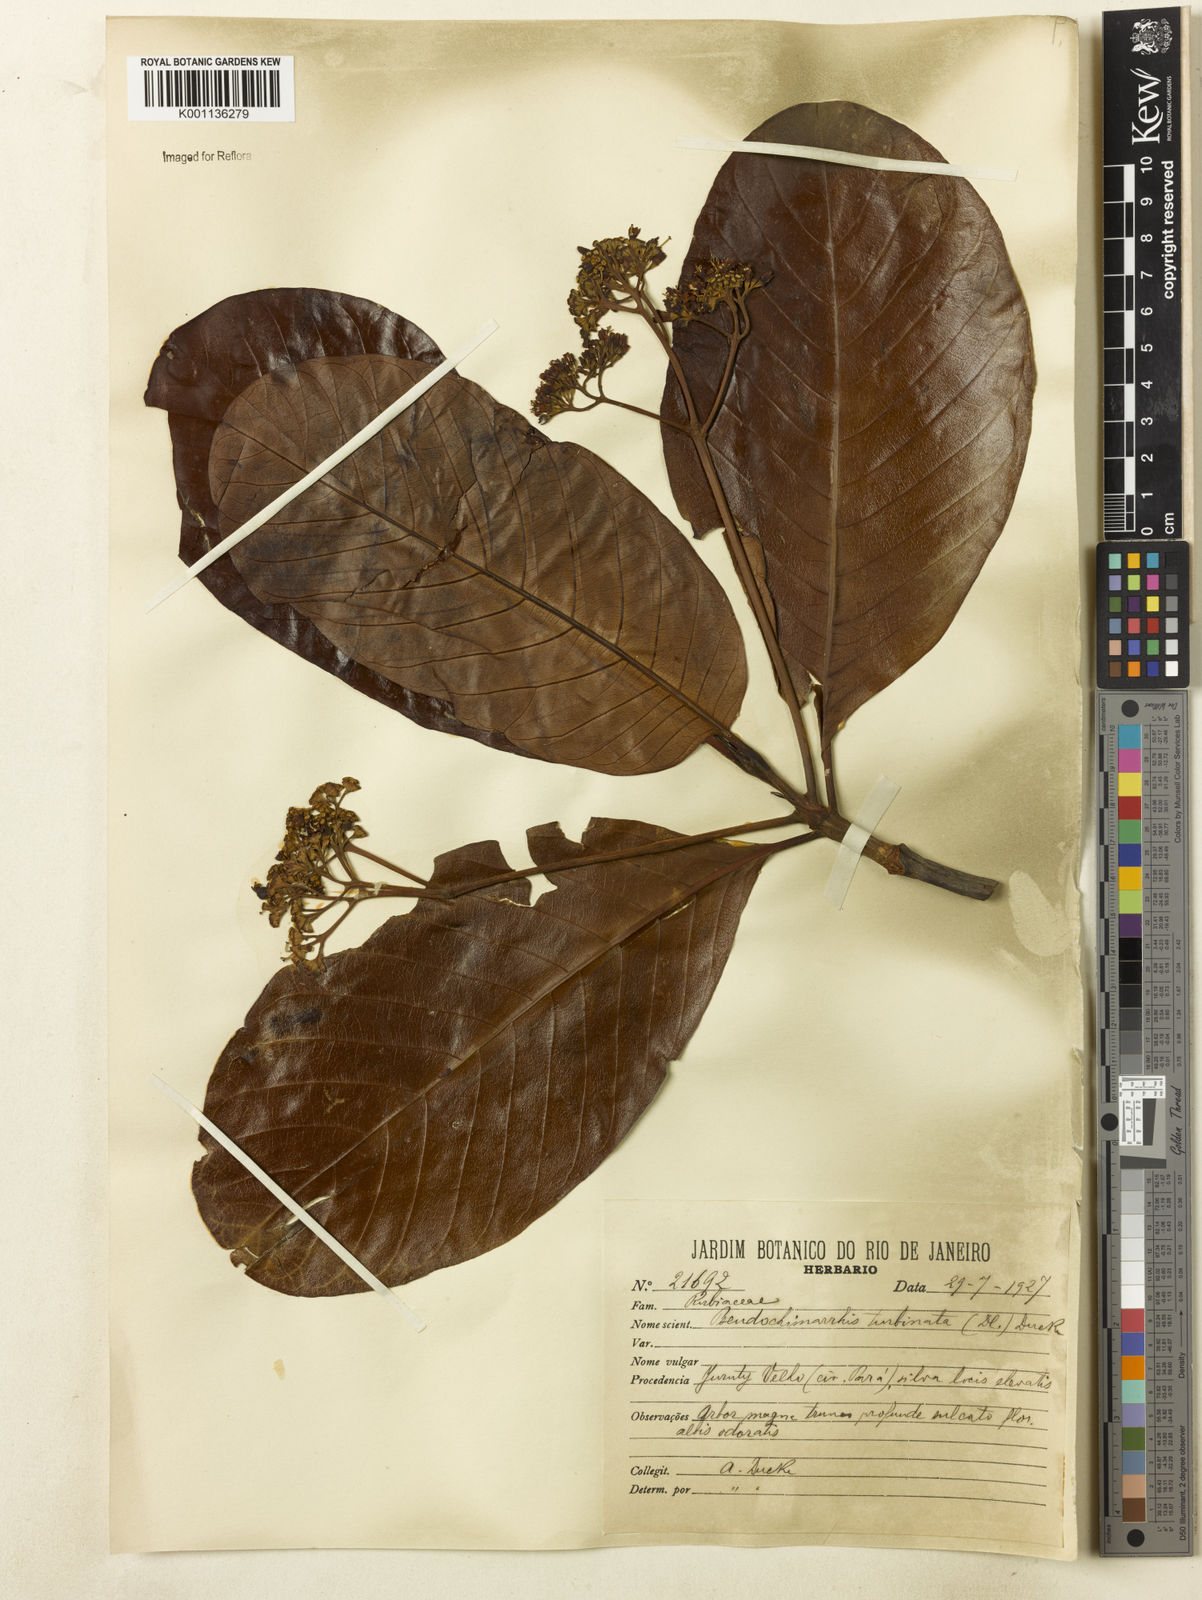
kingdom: Plantae
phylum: Tracheophyta
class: Magnoliopsida
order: Gentianales
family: Rubiaceae
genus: Chimarrhis
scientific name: Chimarrhis turbinata
